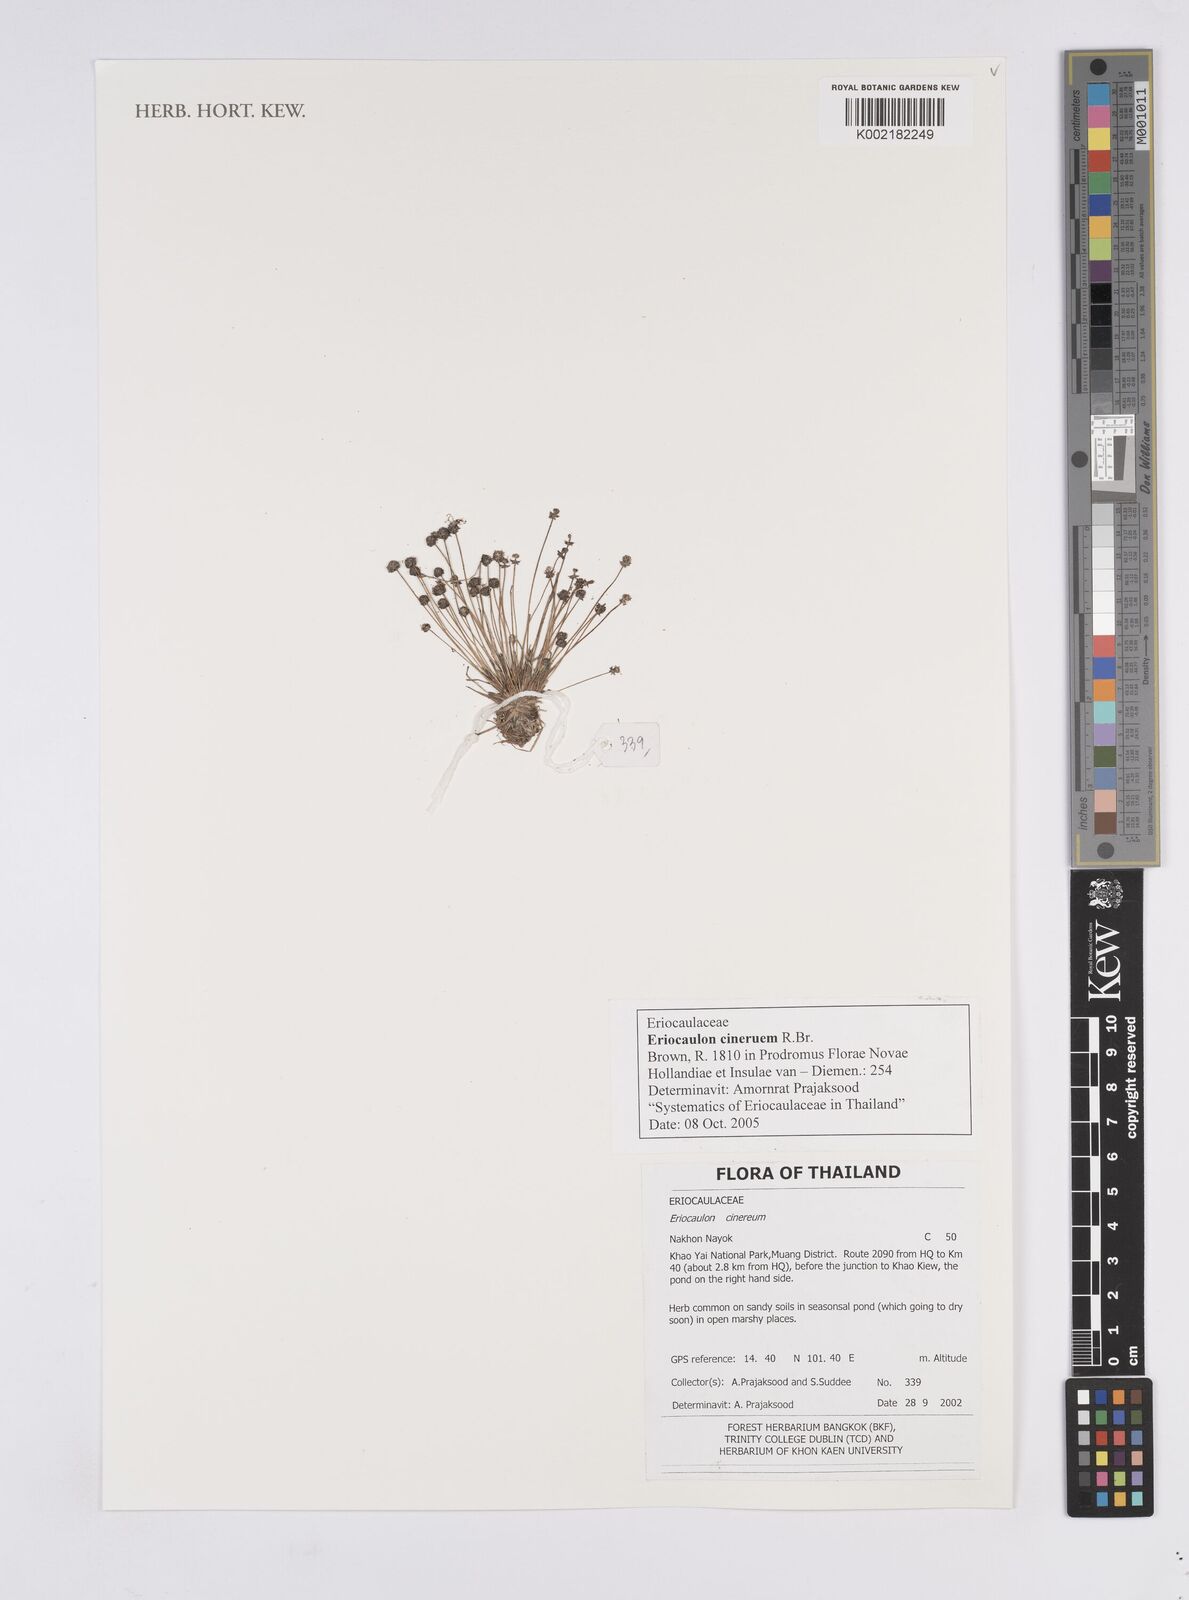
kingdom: Plantae
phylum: Tracheophyta
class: Liliopsida
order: Poales
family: Eriocaulaceae
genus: Eriocaulon
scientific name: Eriocaulon cinereum
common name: Ashy pipewort
